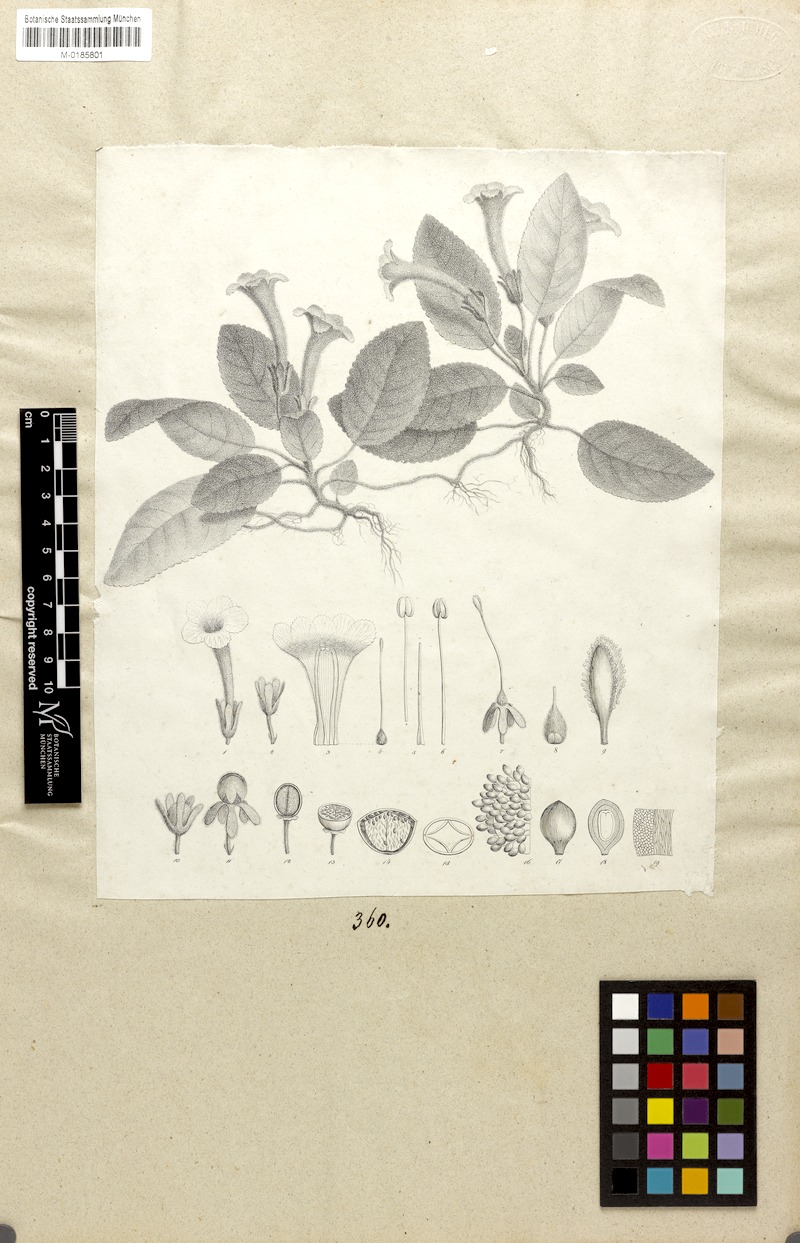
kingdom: Plantae
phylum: Tracheophyta
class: Magnoliopsida
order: Lamiales
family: Gesneriaceae
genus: Episcia
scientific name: Episcia reptans
